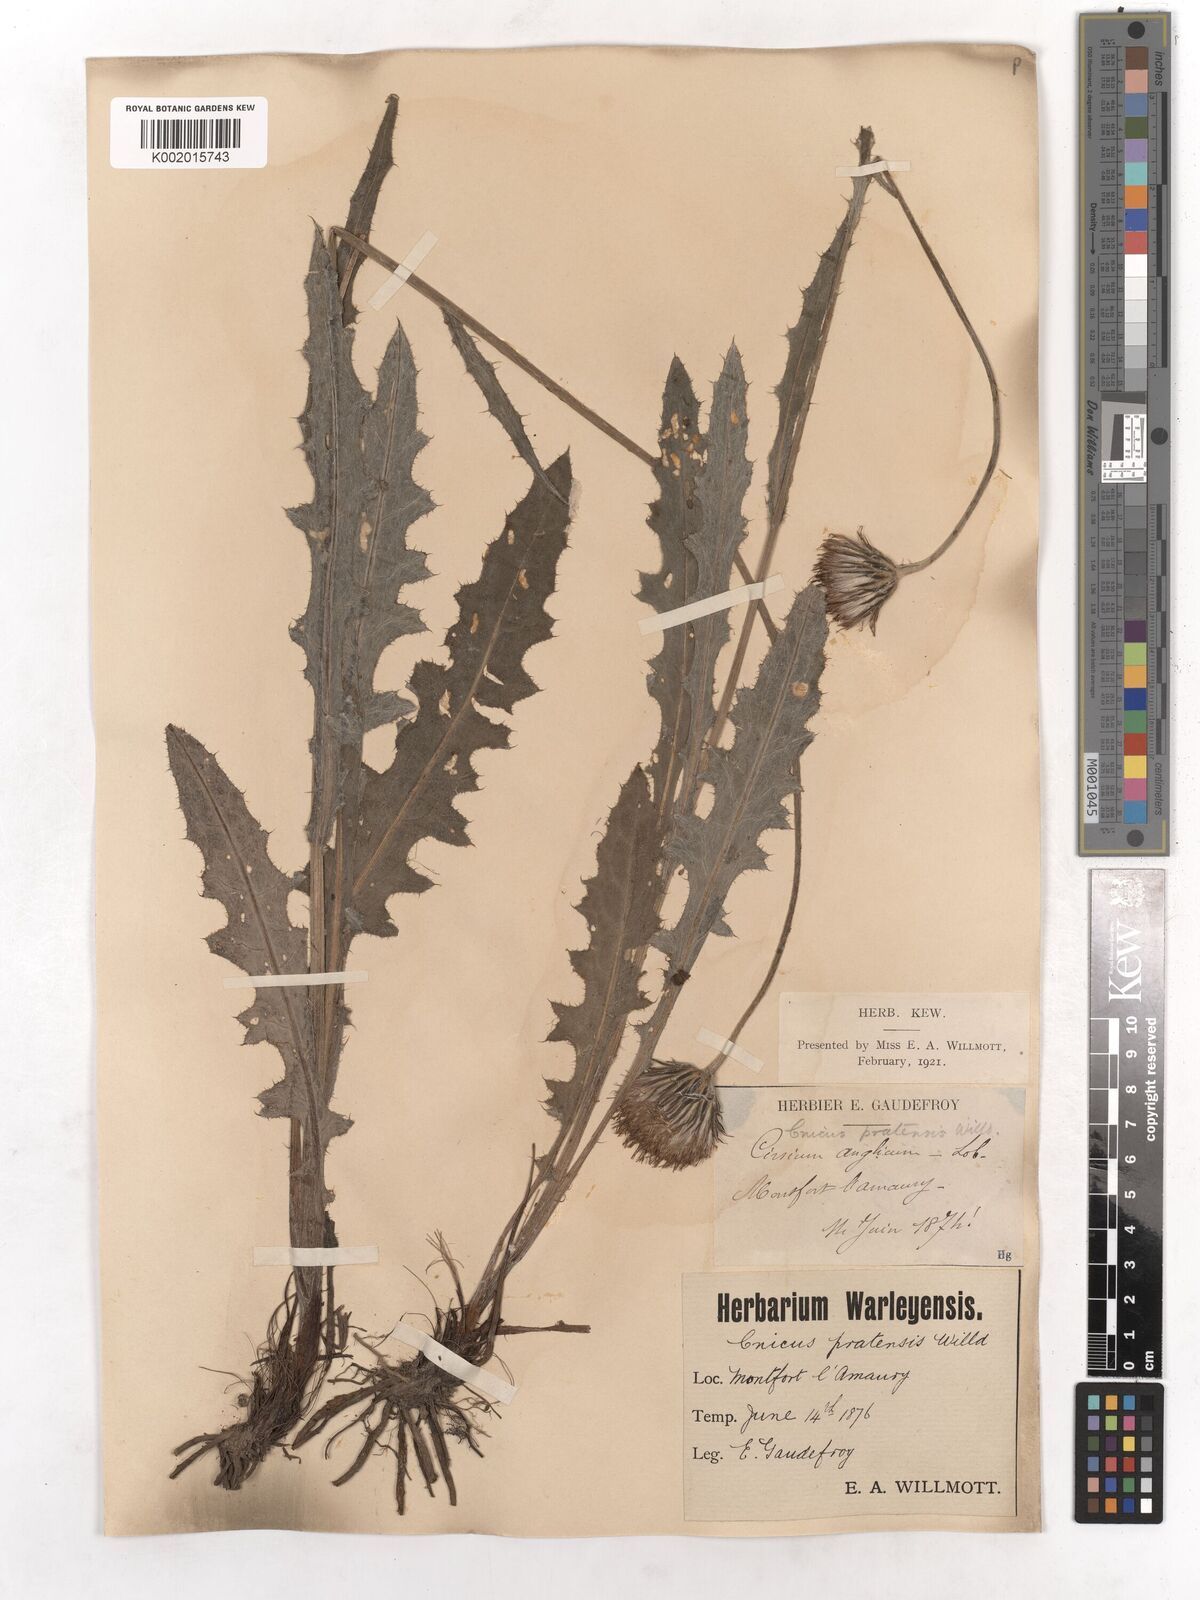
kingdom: Plantae
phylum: Tracheophyta
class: Magnoliopsida
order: Asterales
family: Asteraceae
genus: Cirsium
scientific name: Cirsium dissectum
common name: Meadow thistle
